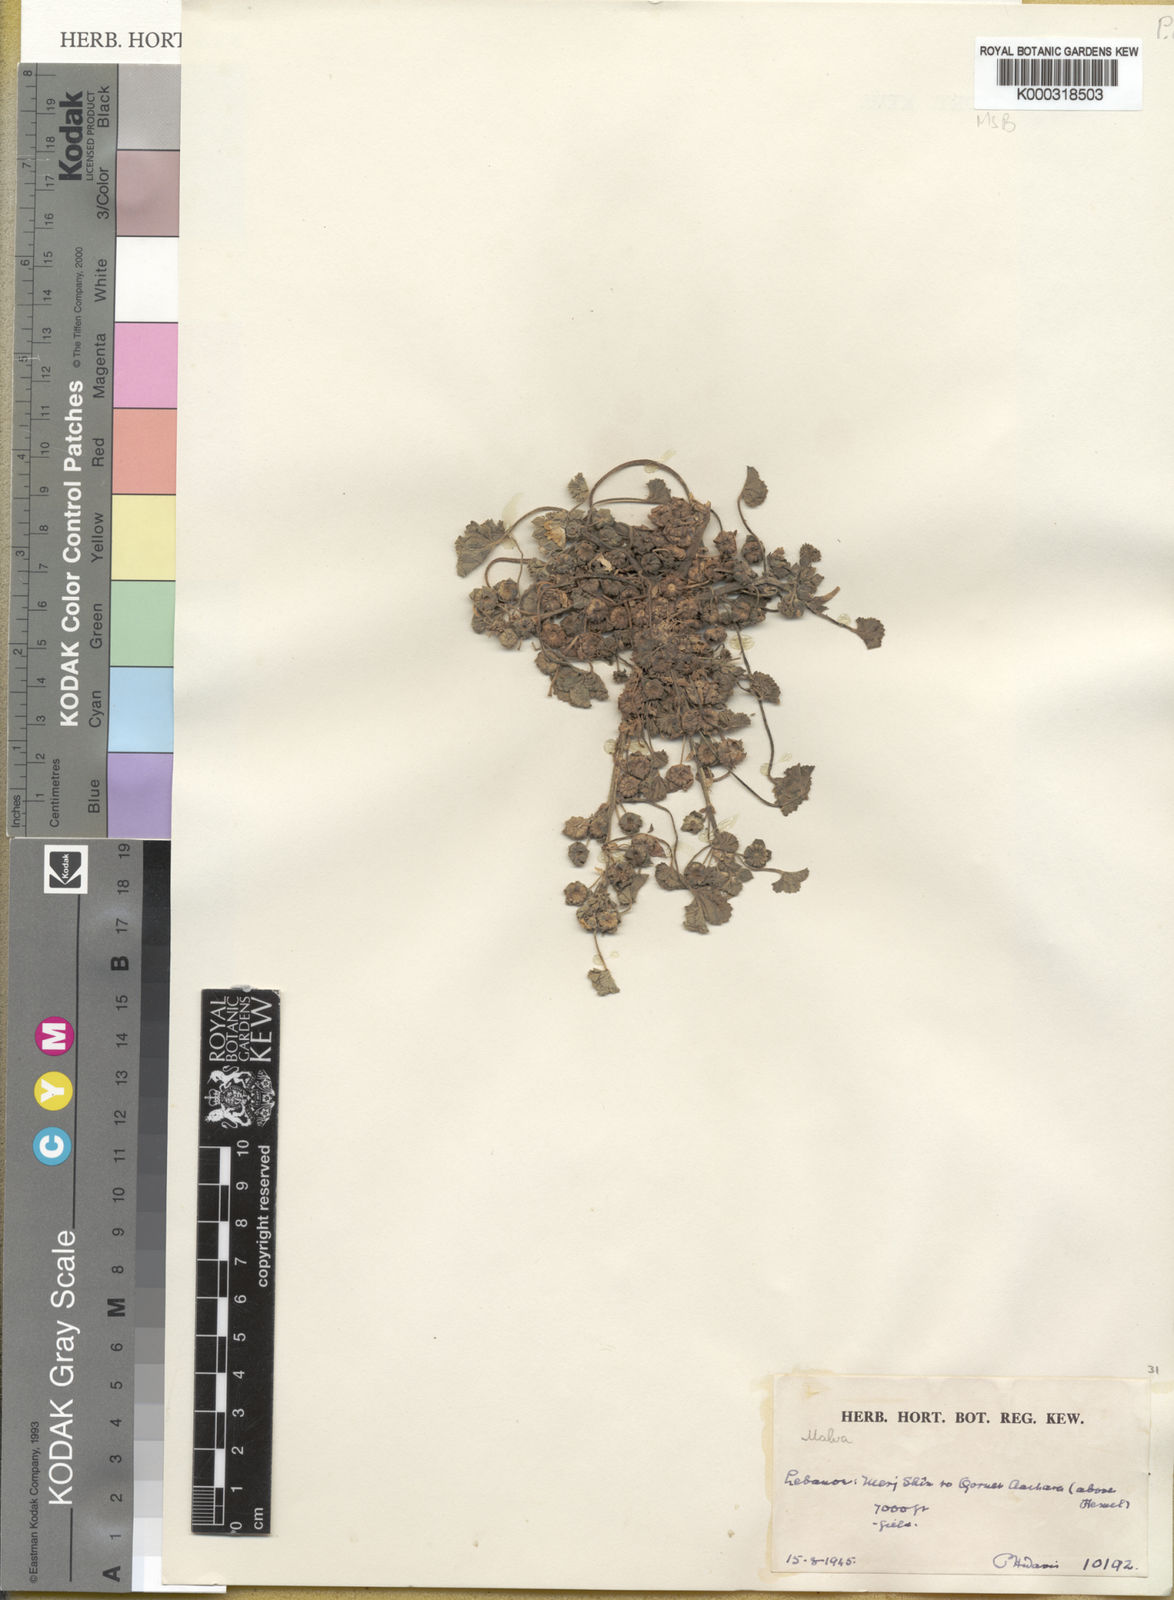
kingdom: Plantae
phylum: Tracheophyta
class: Magnoliopsida
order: Malvales
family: Malvaceae
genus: Malva
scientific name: Malva neglecta
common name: Common mallow
